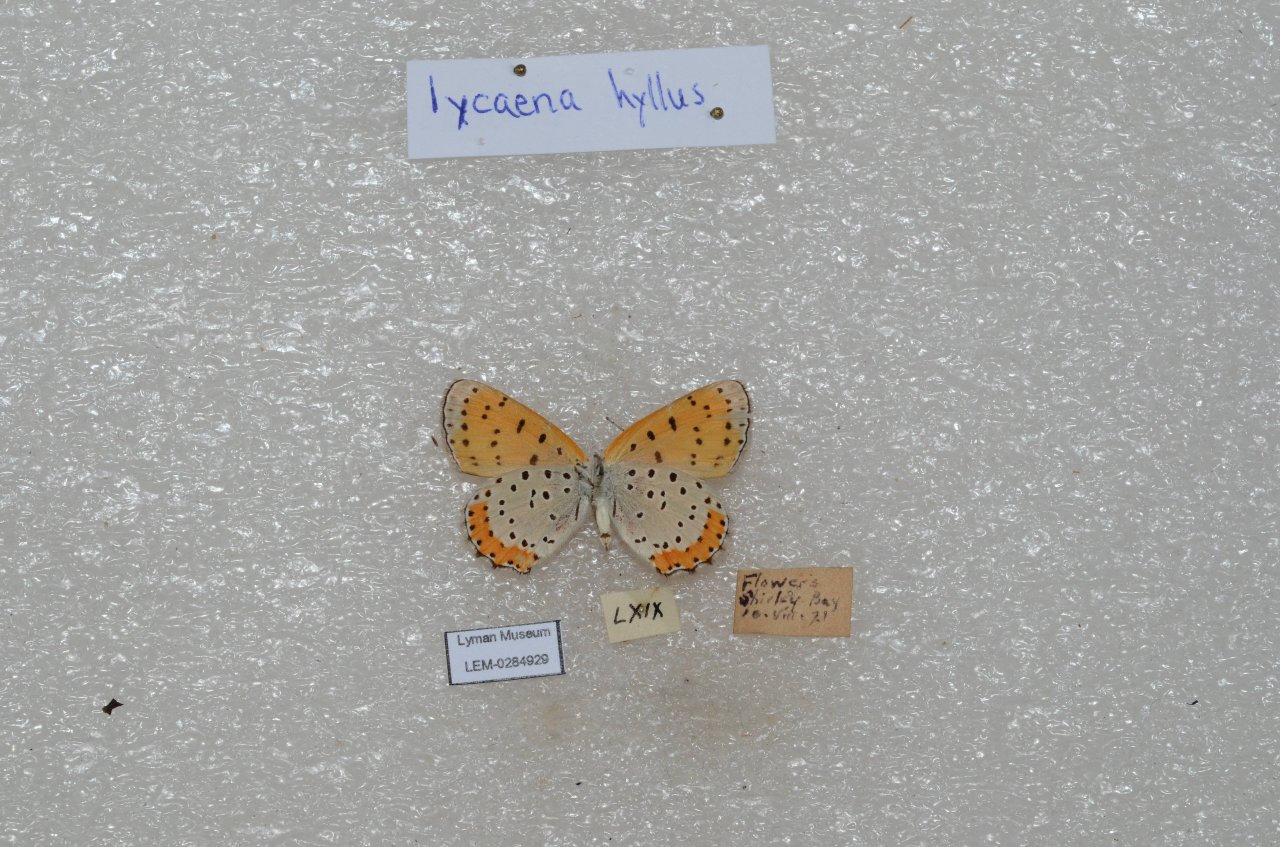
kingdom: Animalia
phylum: Arthropoda
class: Insecta
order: Lepidoptera
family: Sesiidae
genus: Sesia
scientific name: Sesia Lycaena hyllus
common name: Bronze Copper
